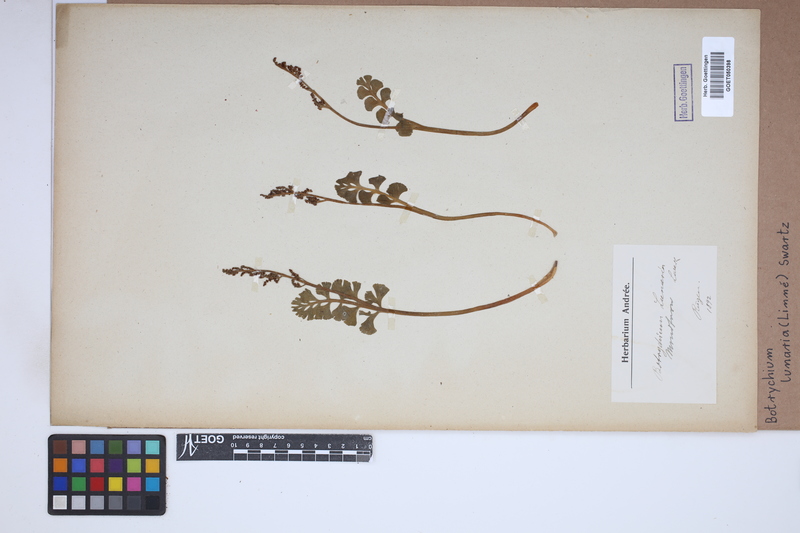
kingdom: Plantae
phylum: Tracheophyta
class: Polypodiopsida
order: Ophioglossales
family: Ophioglossaceae
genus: Botrychium
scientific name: Botrychium lunaria
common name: Moonwort
